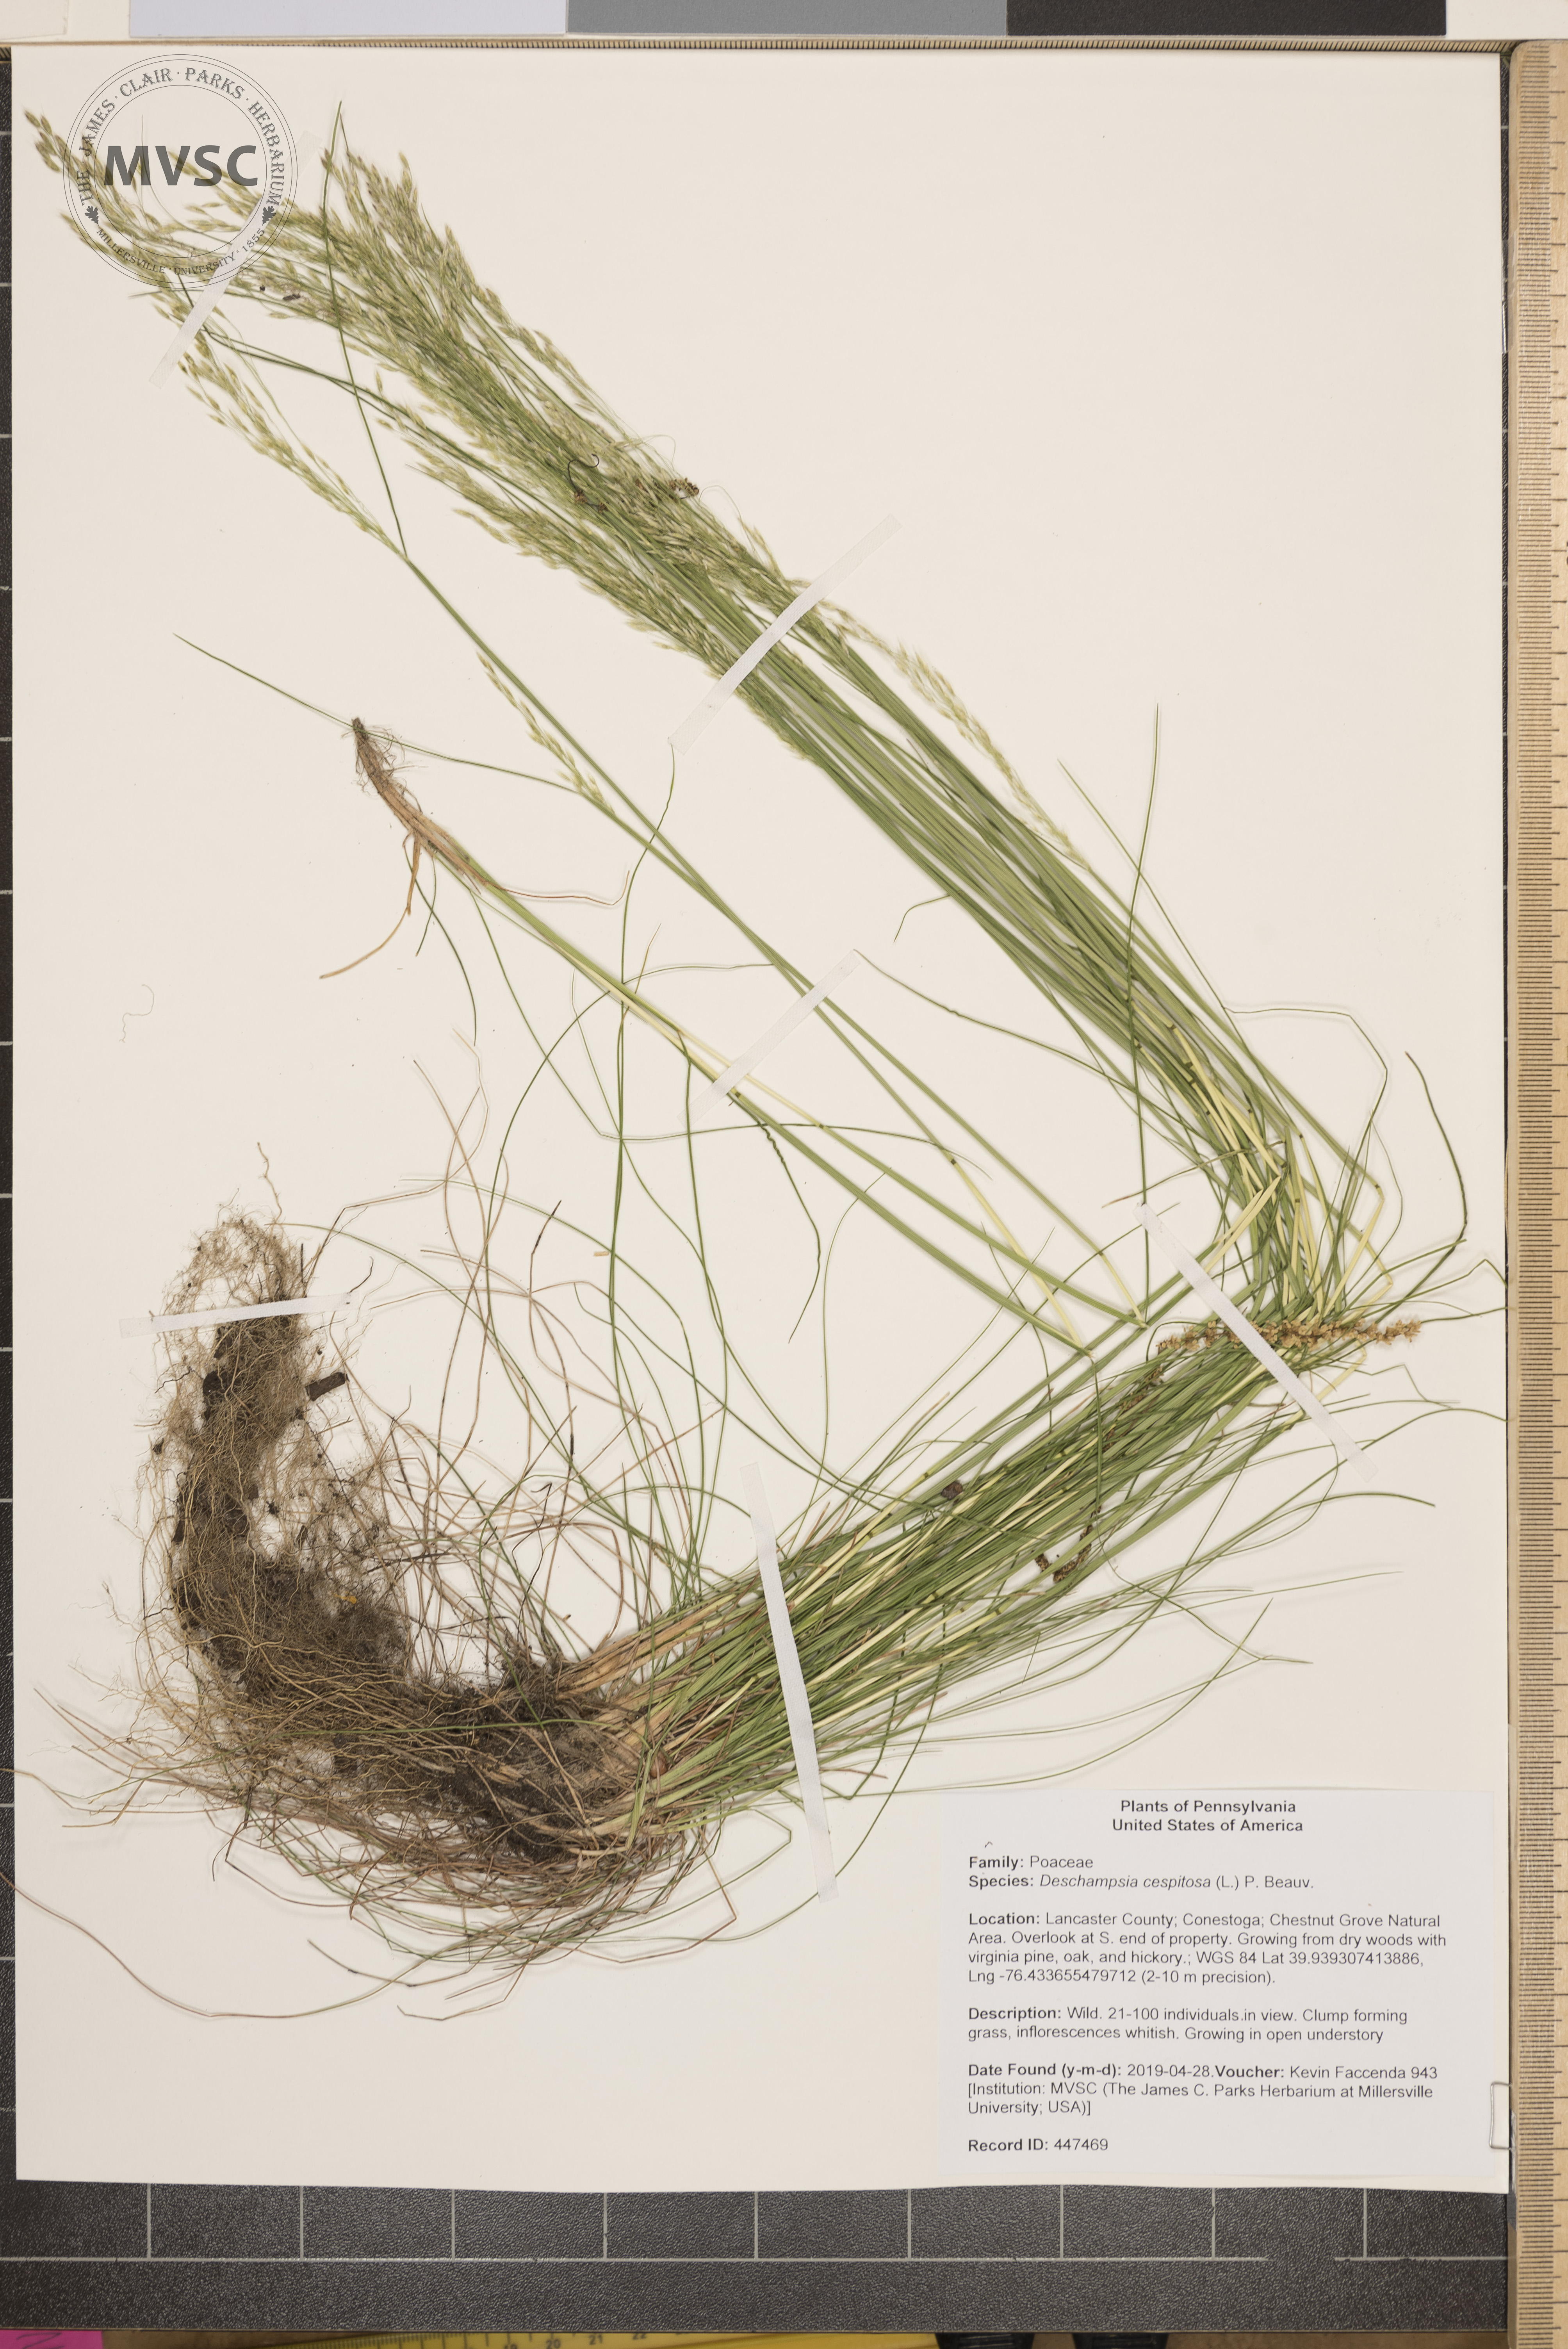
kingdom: Plantae
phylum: Tracheophyta
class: Liliopsida
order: Poales
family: Poaceae
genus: Deschampsia
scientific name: Deschampsia cespitosa
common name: Tufted hair-grass
